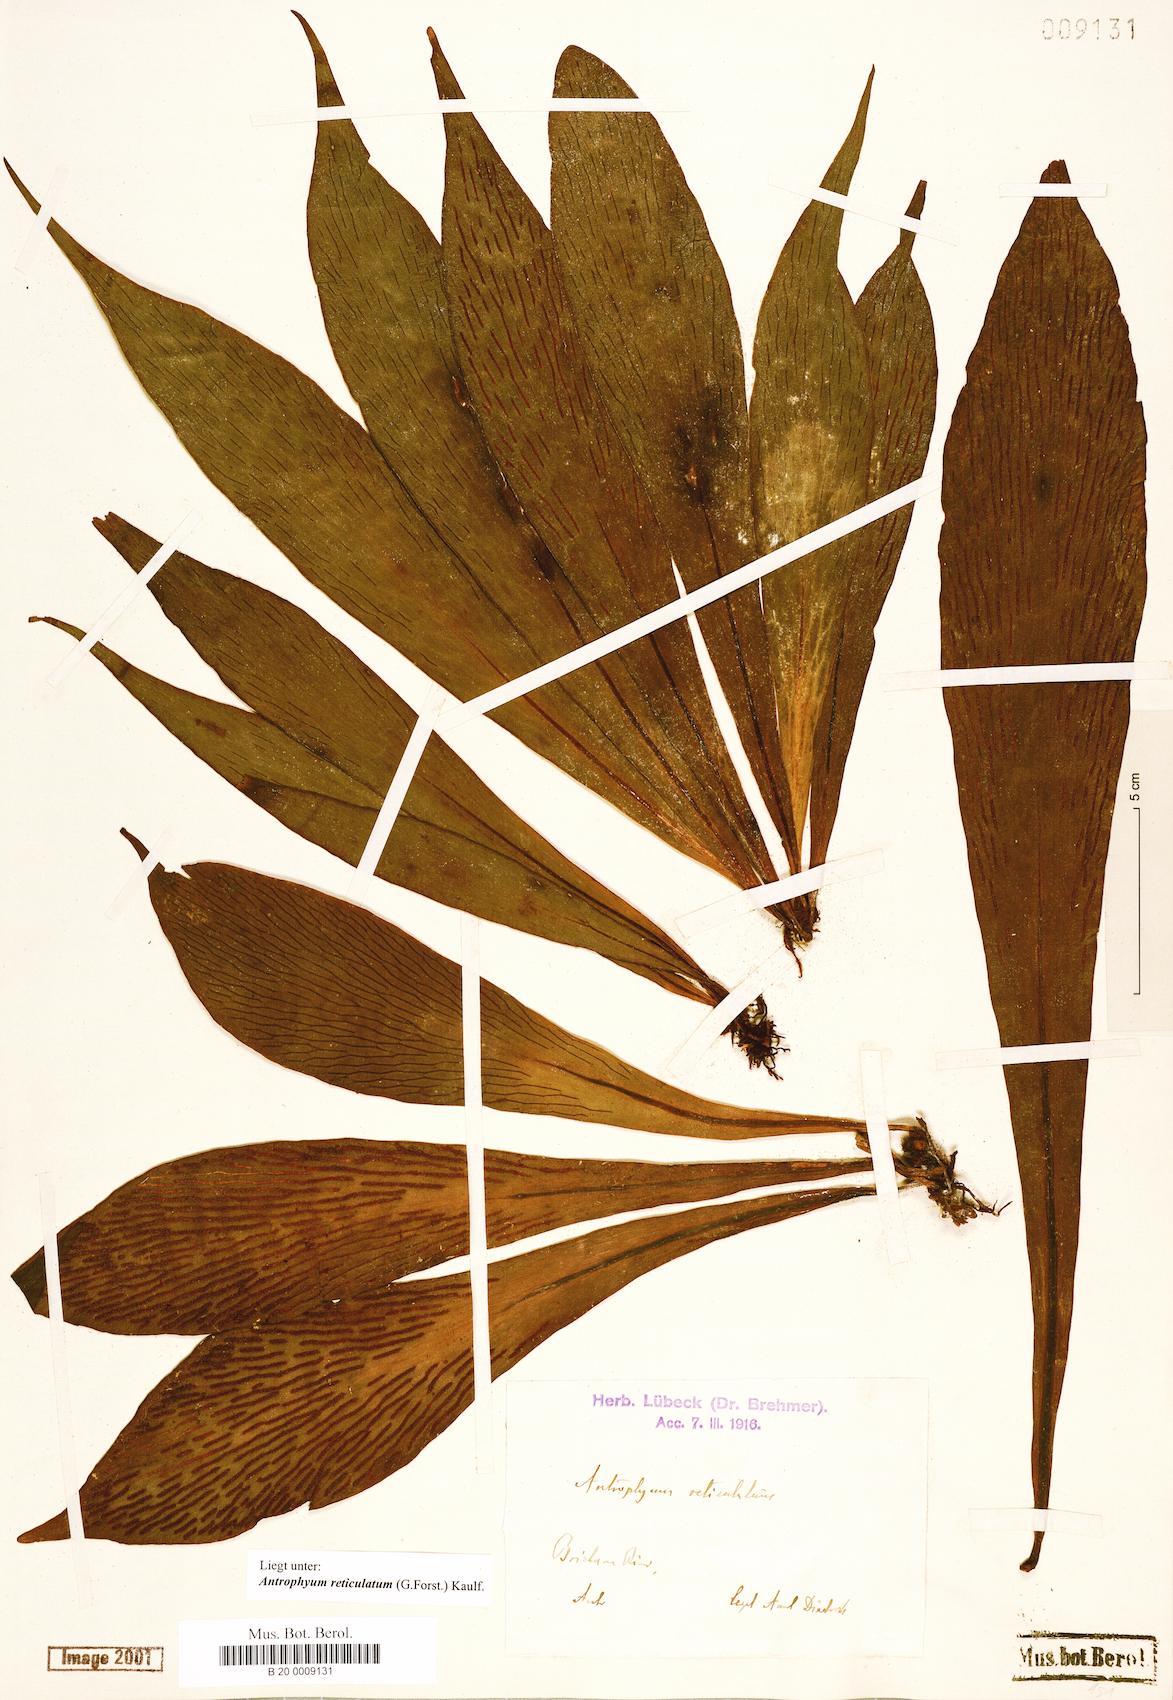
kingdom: Plantae
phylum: Tracheophyta
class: Polypodiopsida
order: Polypodiales
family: Pteridaceae
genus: Antrophyum
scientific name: Antrophyum reticulatum
